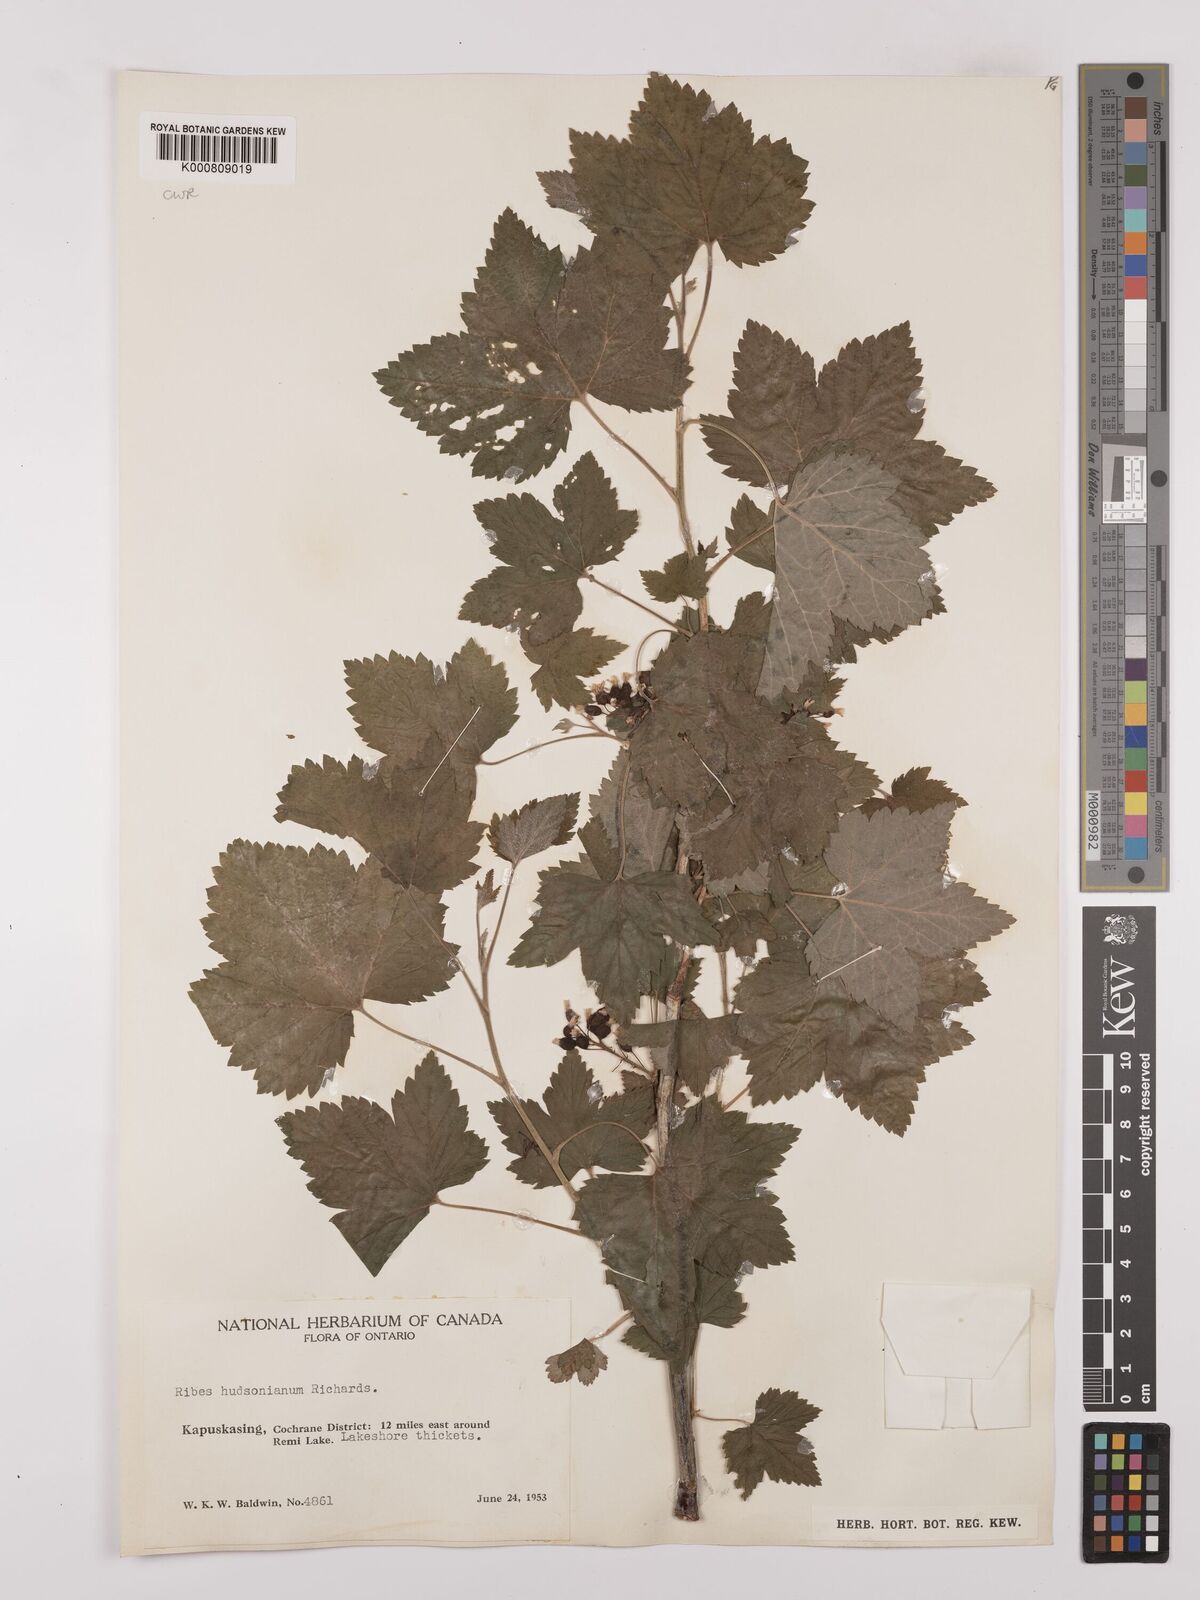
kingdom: Plantae
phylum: Tracheophyta
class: Magnoliopsida
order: Saxifragales
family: Grossulariaceae
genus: Ribes
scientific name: Ribes hudsonianum
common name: Northern black currant
